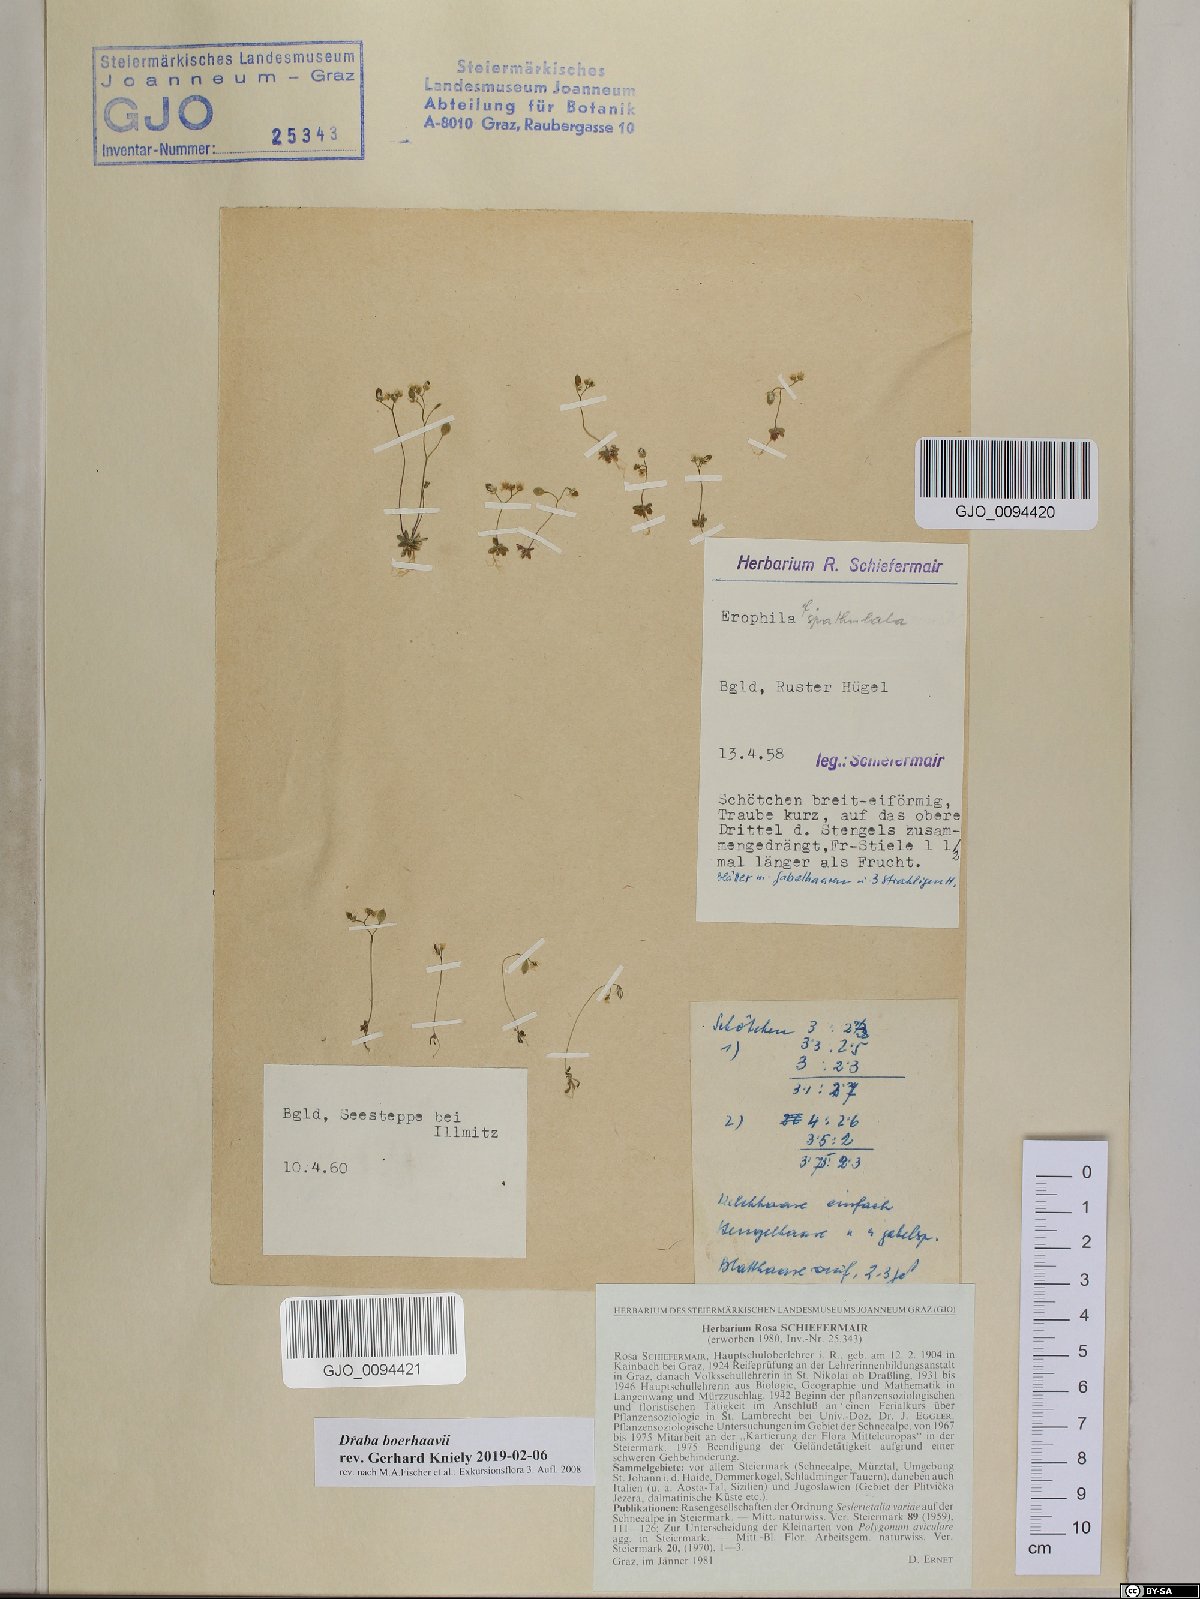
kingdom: Plantae
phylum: Tracheophyta
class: Magnoliopsida
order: Brassicales
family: Brassicaceae
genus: Draba
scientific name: Draba verna
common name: Spring draba
